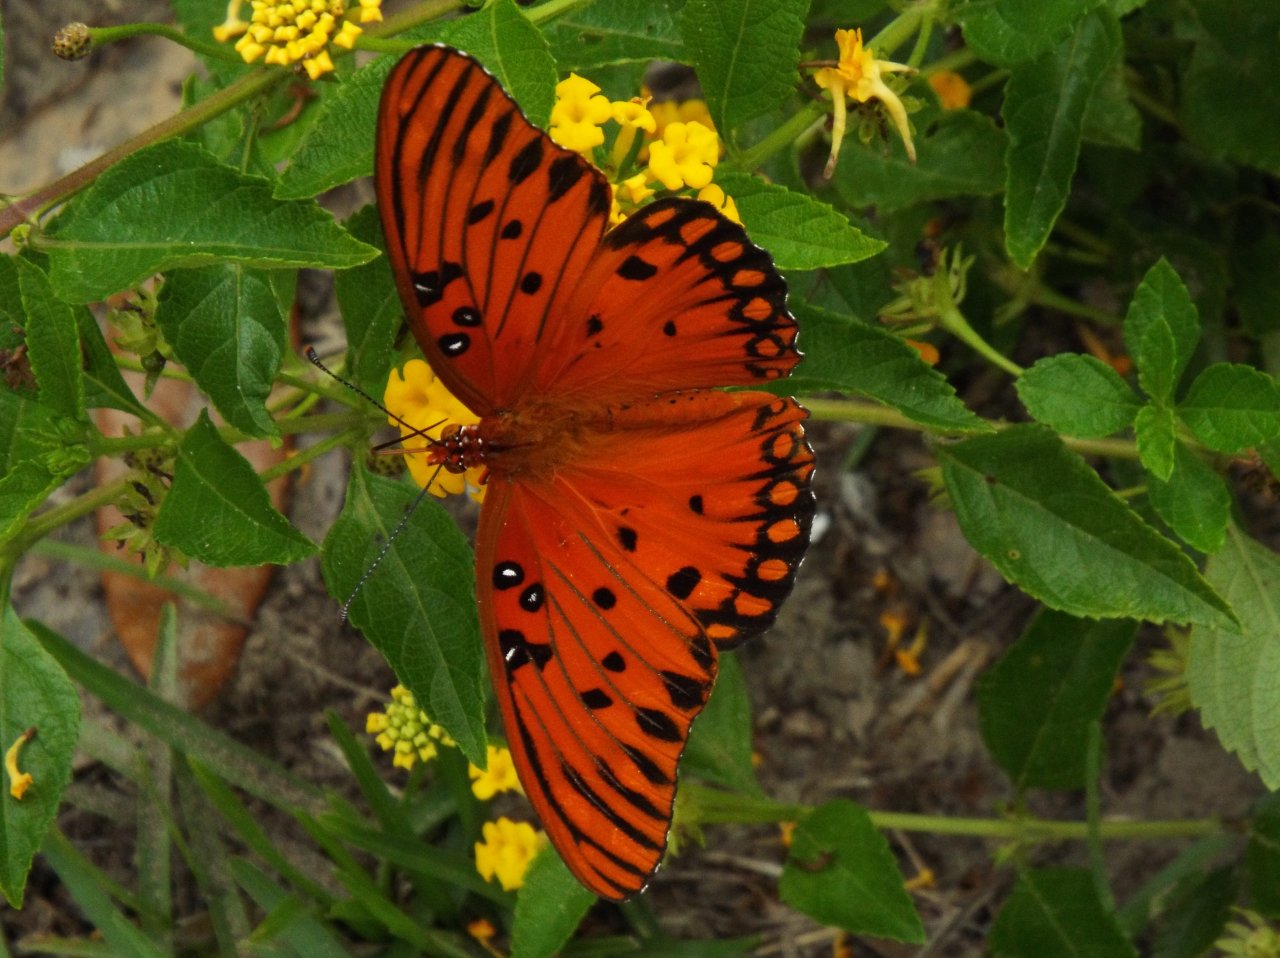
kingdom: Animalia
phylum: Arthropoda
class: Insecta
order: Lepidoptera
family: Nymphalidae
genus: Dione
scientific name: Dione vanillae
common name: Gulf Fritillary
